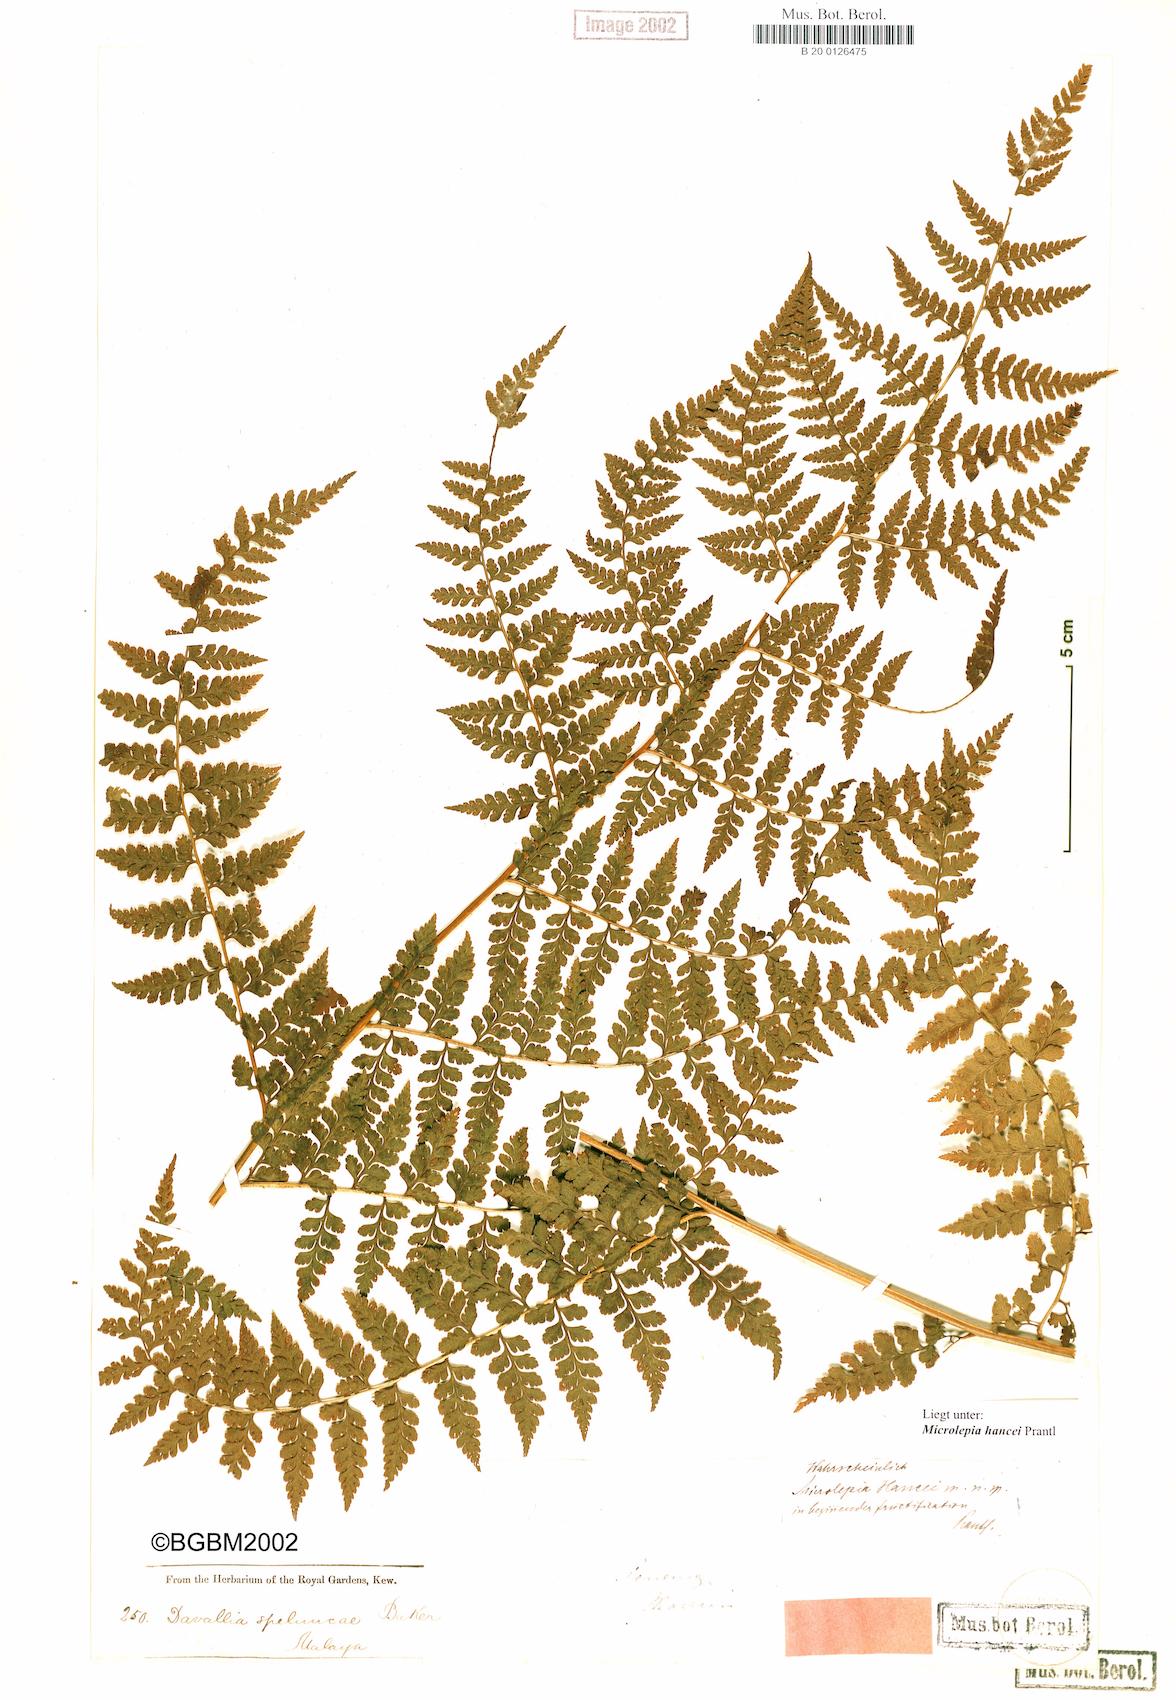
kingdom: Plantae
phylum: Tracheophyta
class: Polypodiopsida
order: Polypodiales
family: Dennstaedtiaceae
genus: Microlepia
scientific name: Microlepia nepalensis
